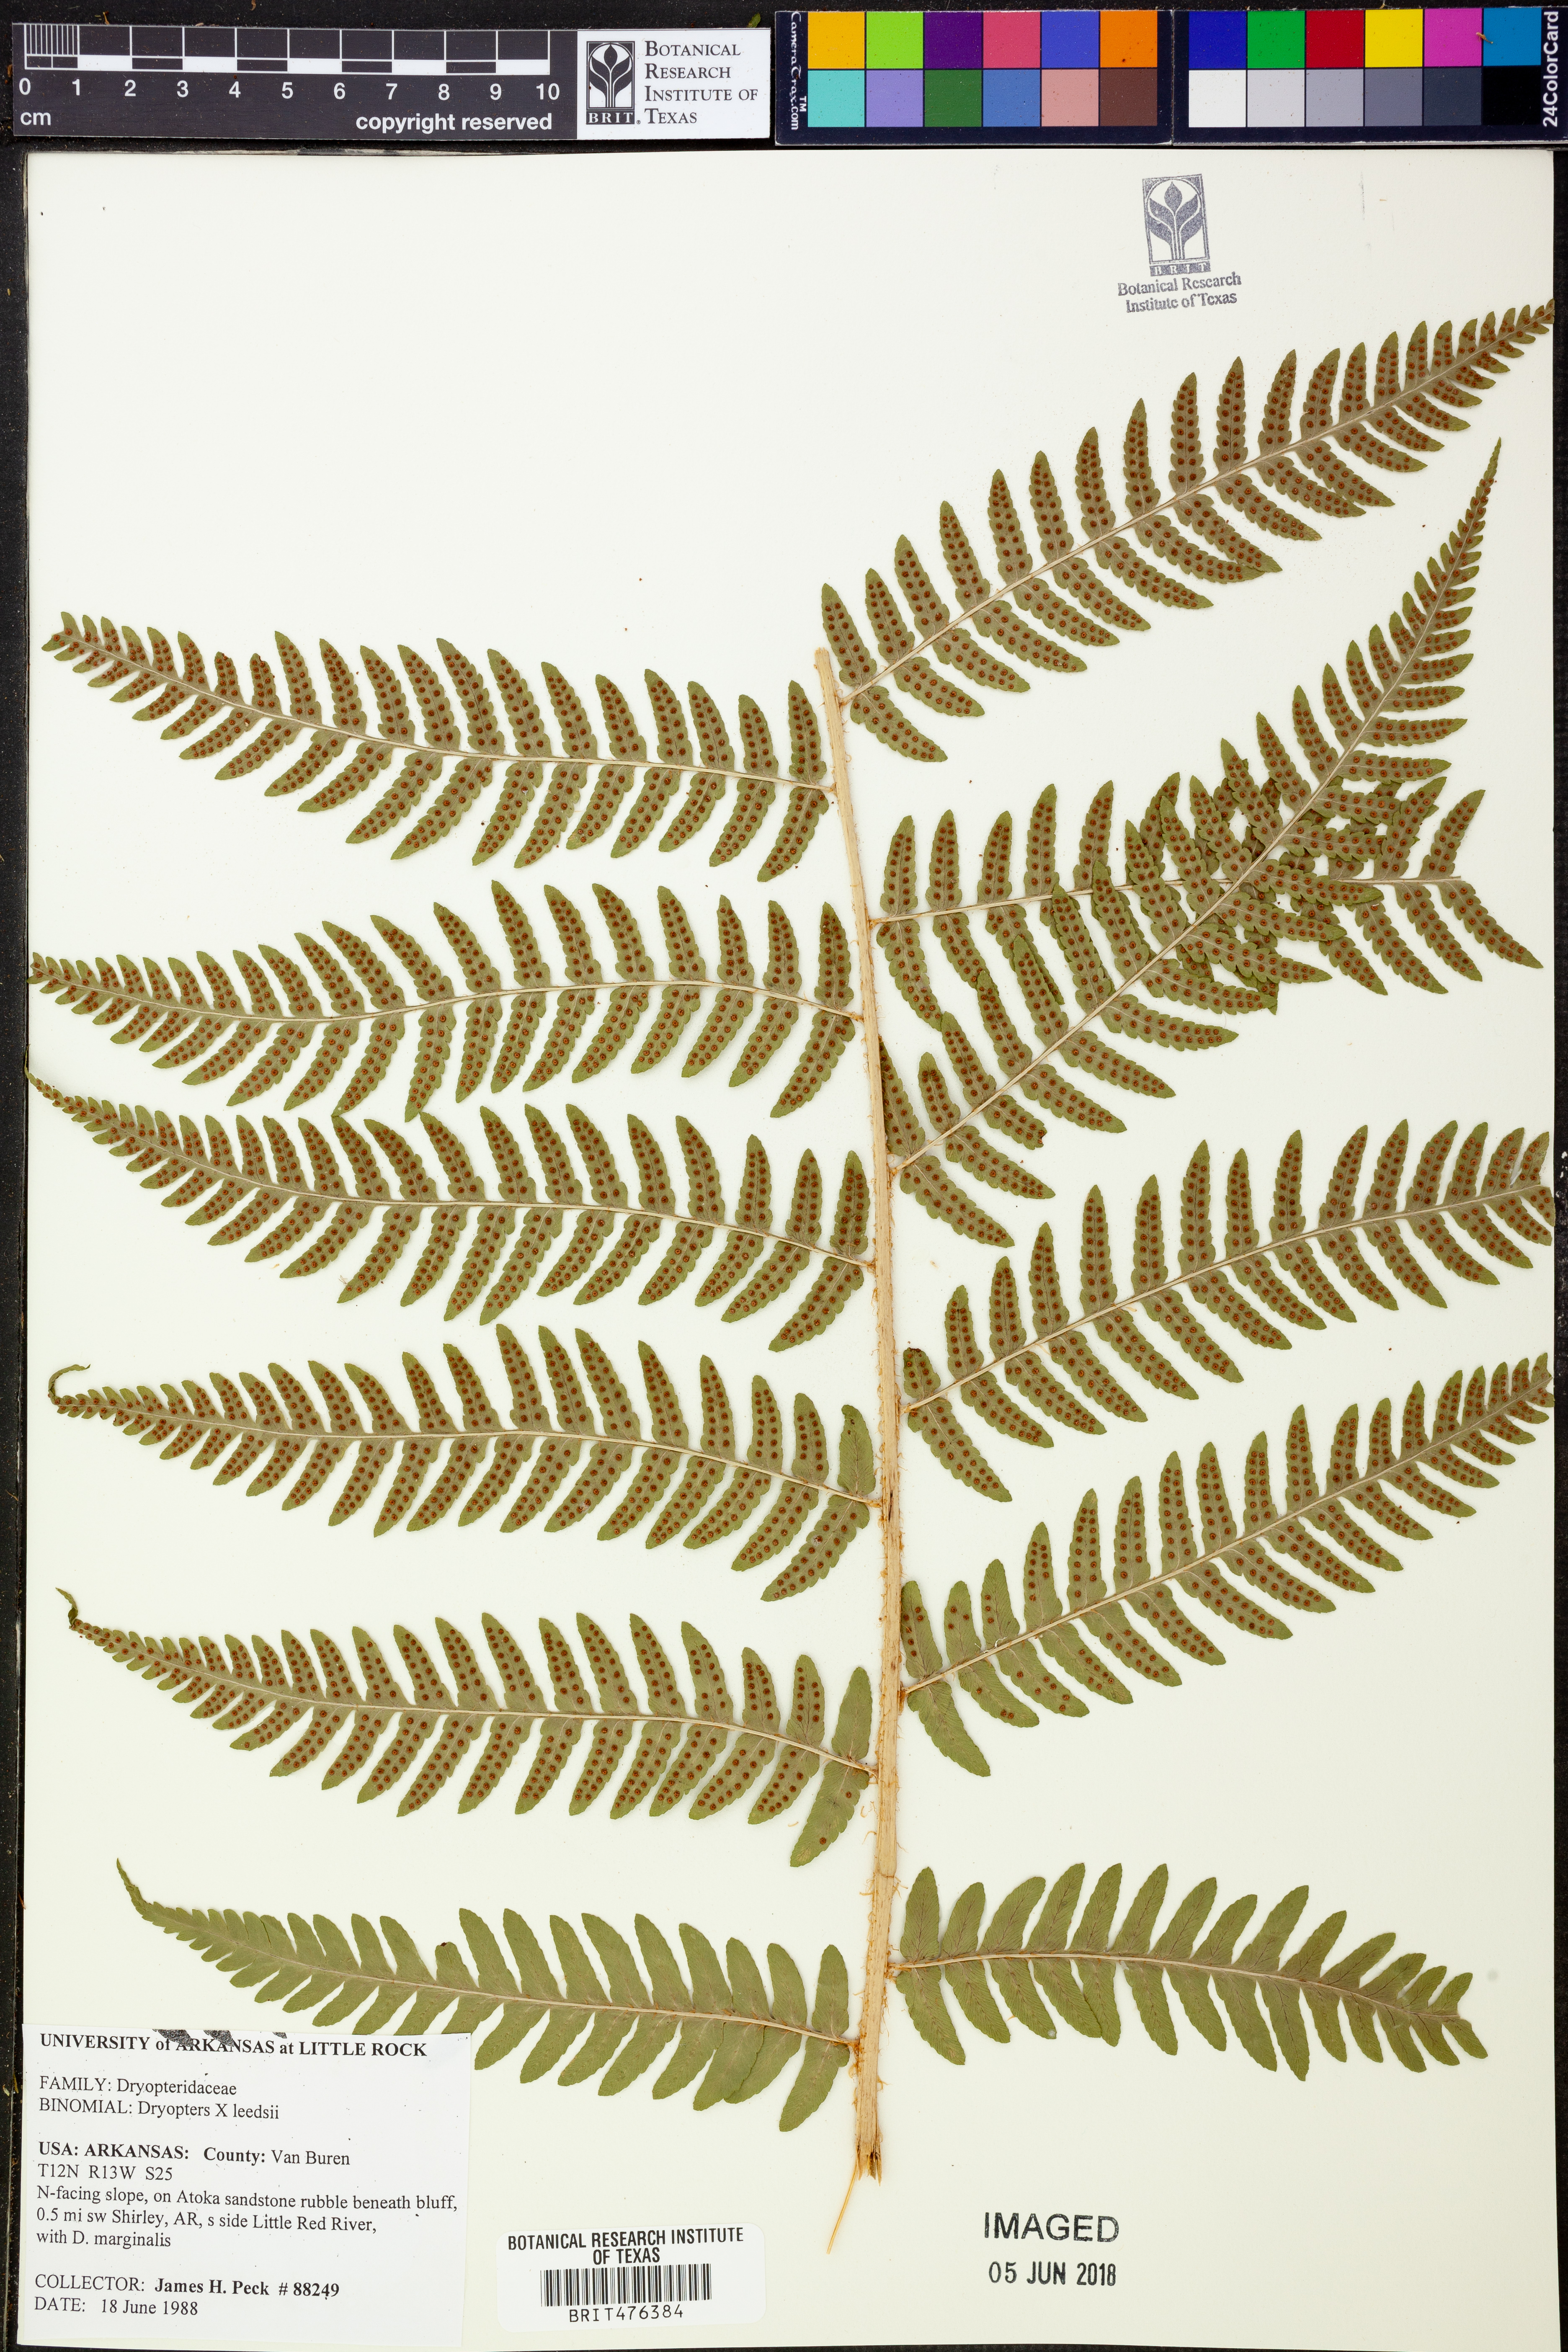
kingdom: Plantae
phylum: Tracheophyta
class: Polypodiopsida
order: Polypodiales
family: Dryopteridaceae
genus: Dryopteris
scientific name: Dryopteris
